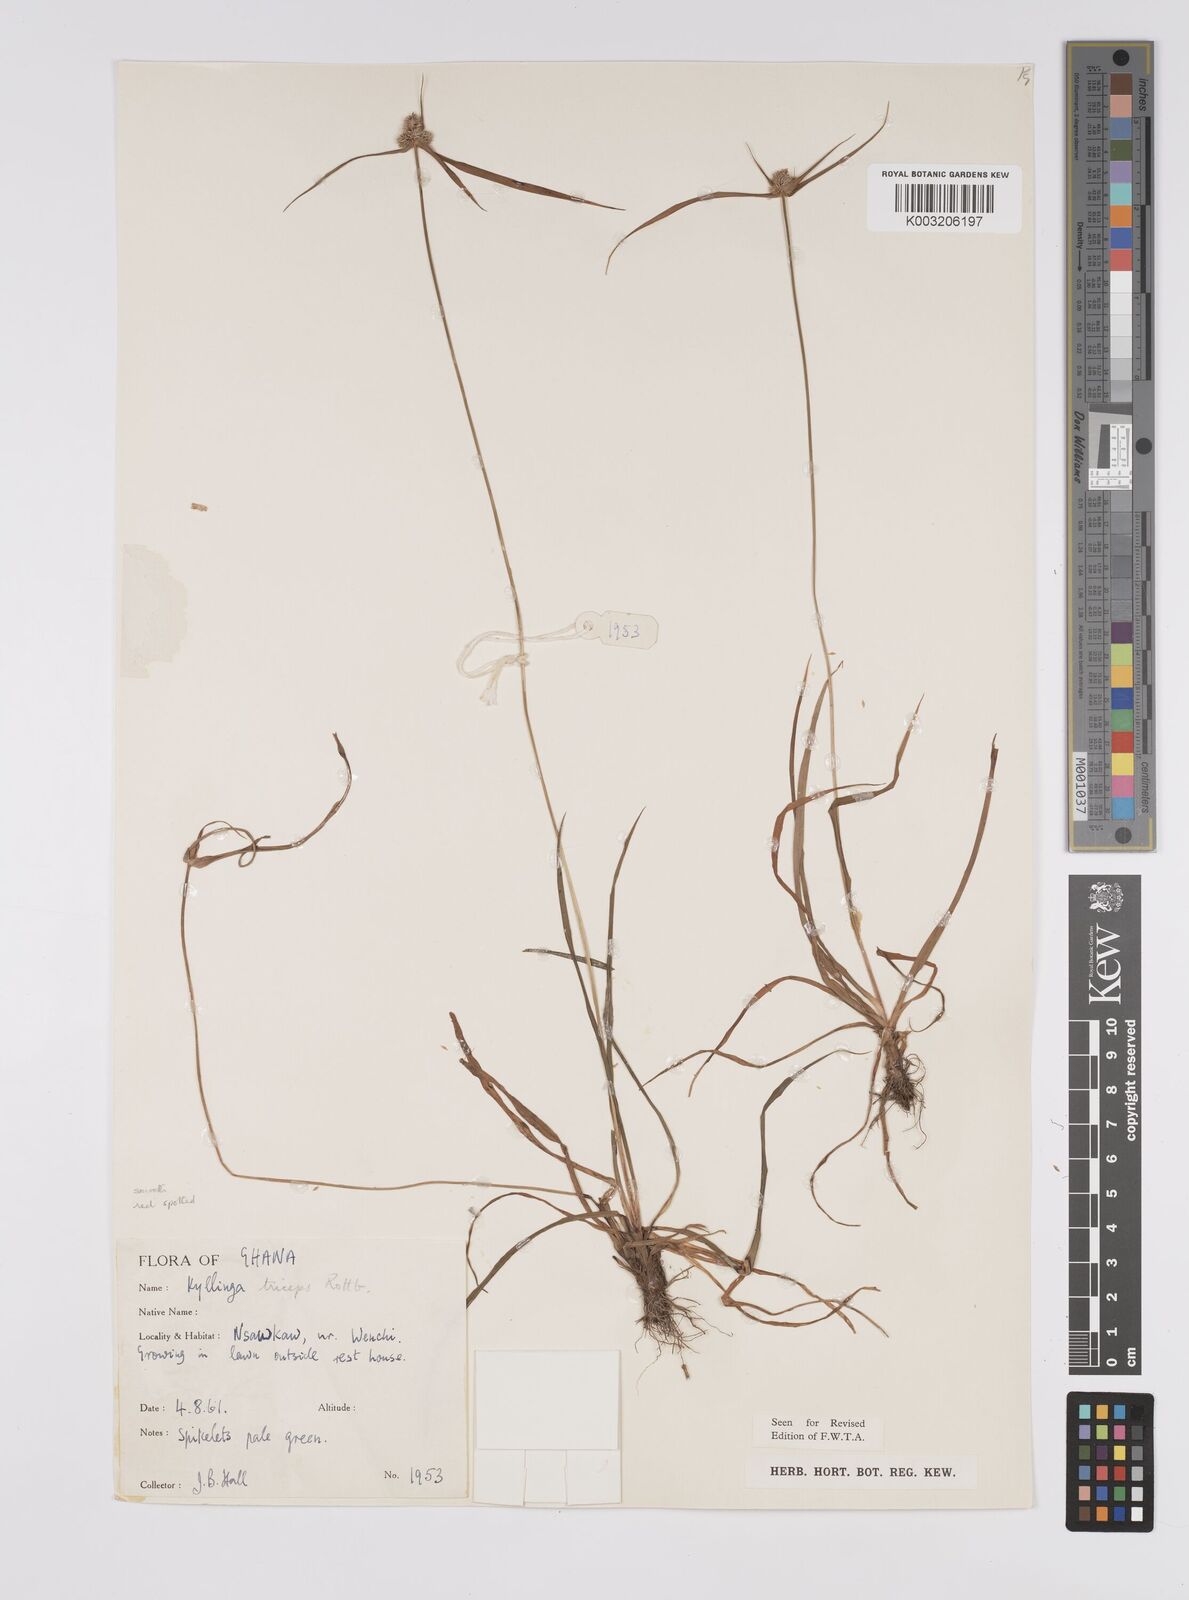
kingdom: Plantae
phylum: Tracheophyta
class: Liliopsida
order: Poales
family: Cyperaceae
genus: Cyperus
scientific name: Cyperus
